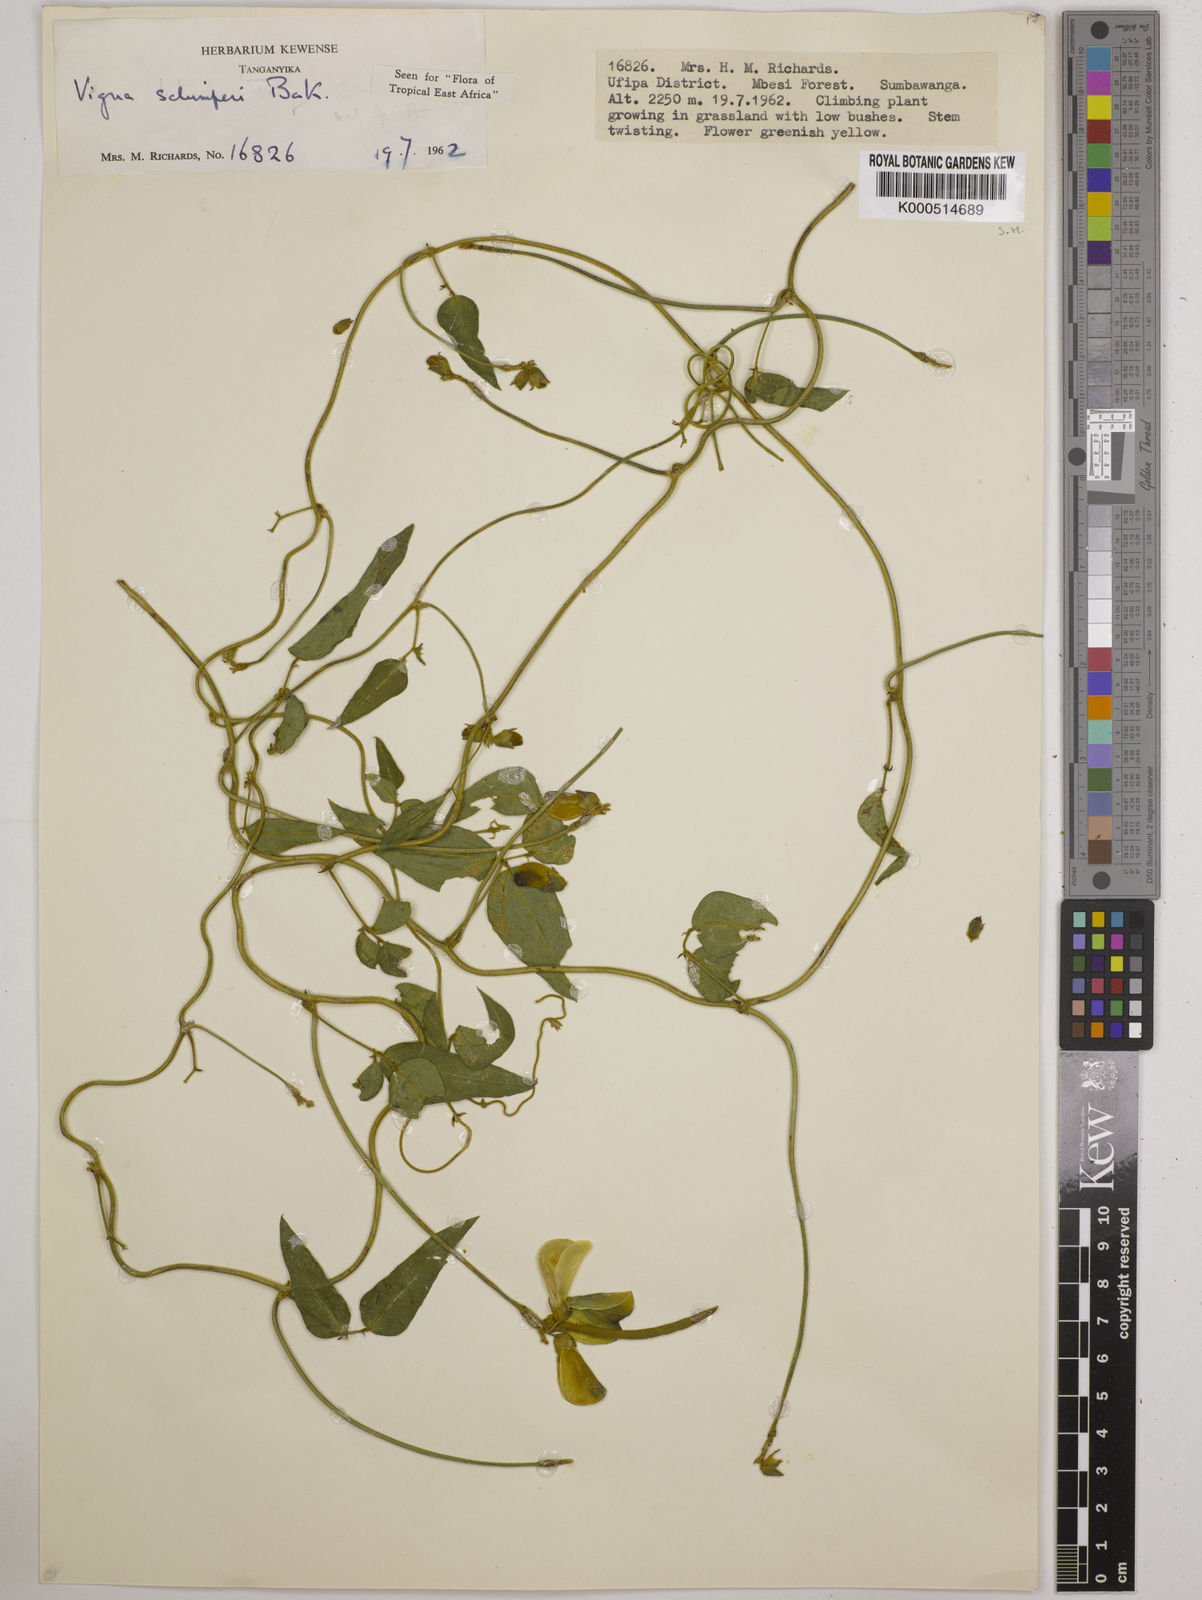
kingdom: Plantae
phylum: Tracheophyta
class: Magnoliopsida
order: Fabales
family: Fabaceae
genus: Vigna
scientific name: Vigna schimperi
